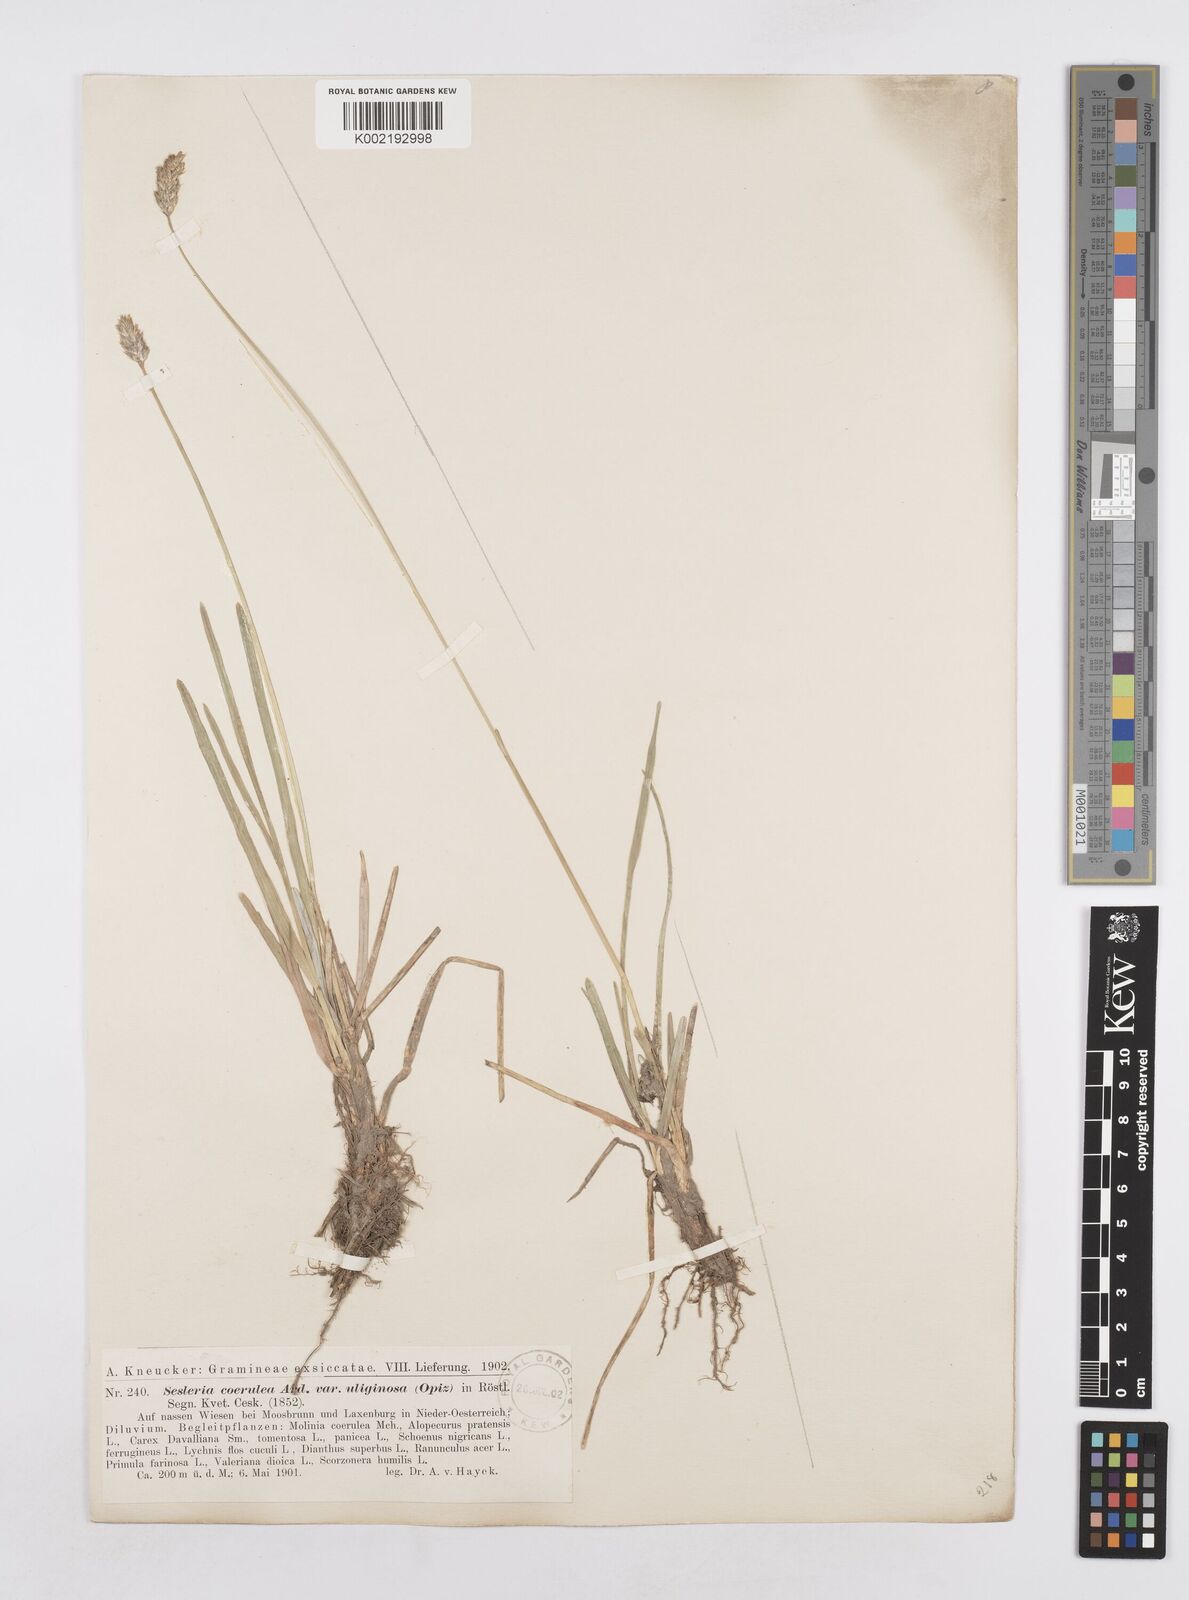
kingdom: Plantae
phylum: Tracheophyta
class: Liliopsida
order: Poales
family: Poaceae
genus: Sesleria
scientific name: Sesleria caerulea
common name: Blue moor-grass
